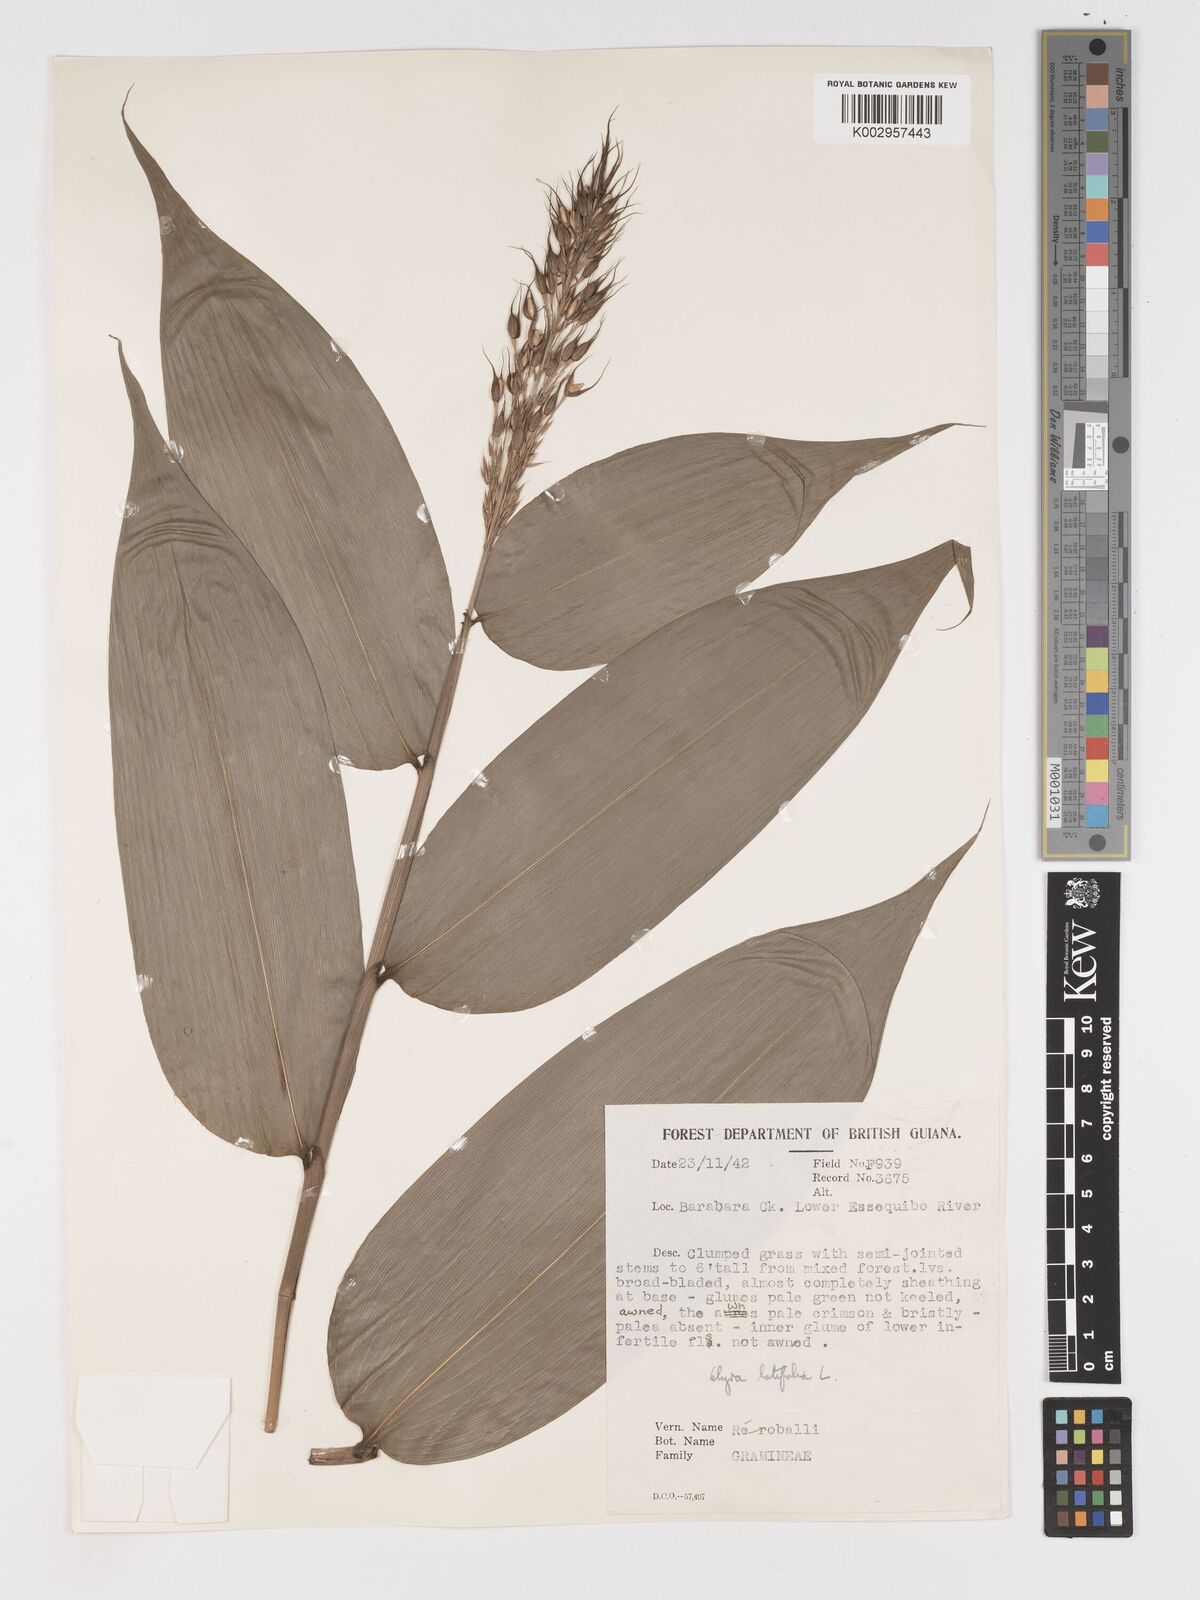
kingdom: Plantae
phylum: Tracheophyta
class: Liliopsida
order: Poales
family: Poaceae
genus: Olyra
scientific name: Olyra latifolia
